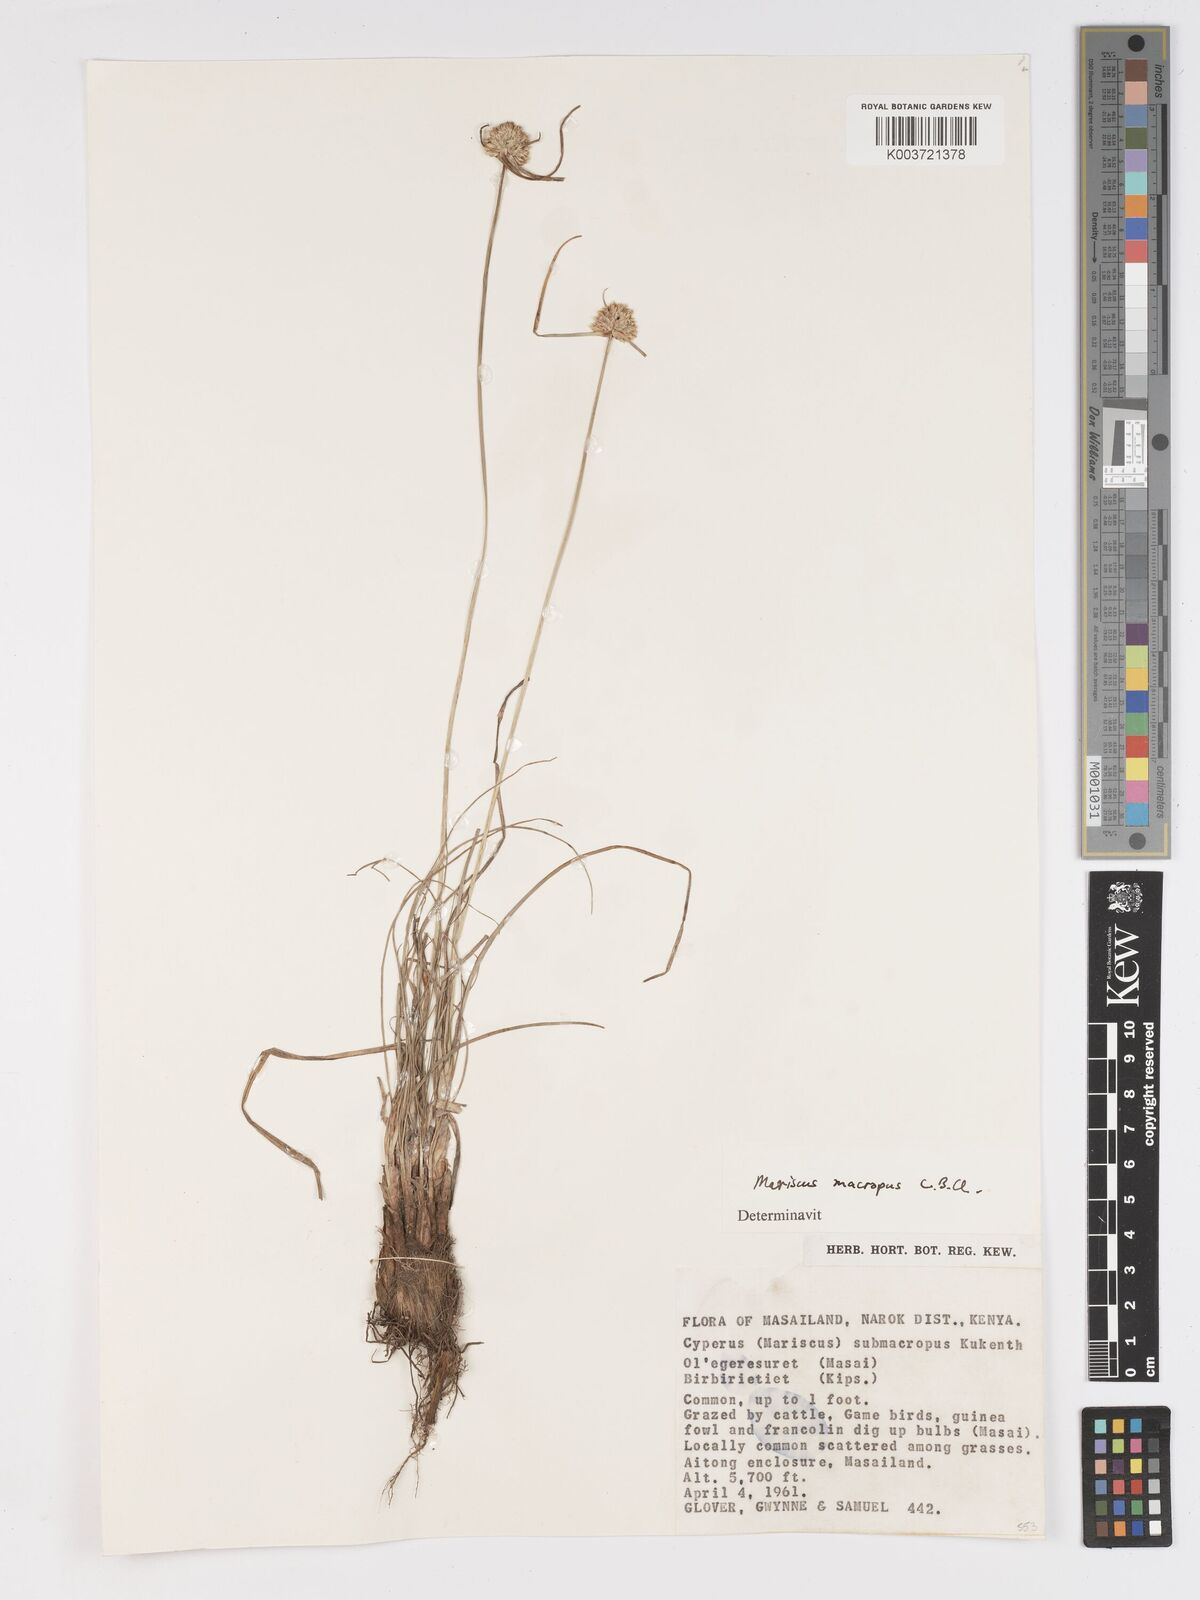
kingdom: Plantae
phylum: Tracheophyta
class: Liliopsida
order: Poales
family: Cyperaceae
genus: Cyperus
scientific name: Cyperus mollipes
